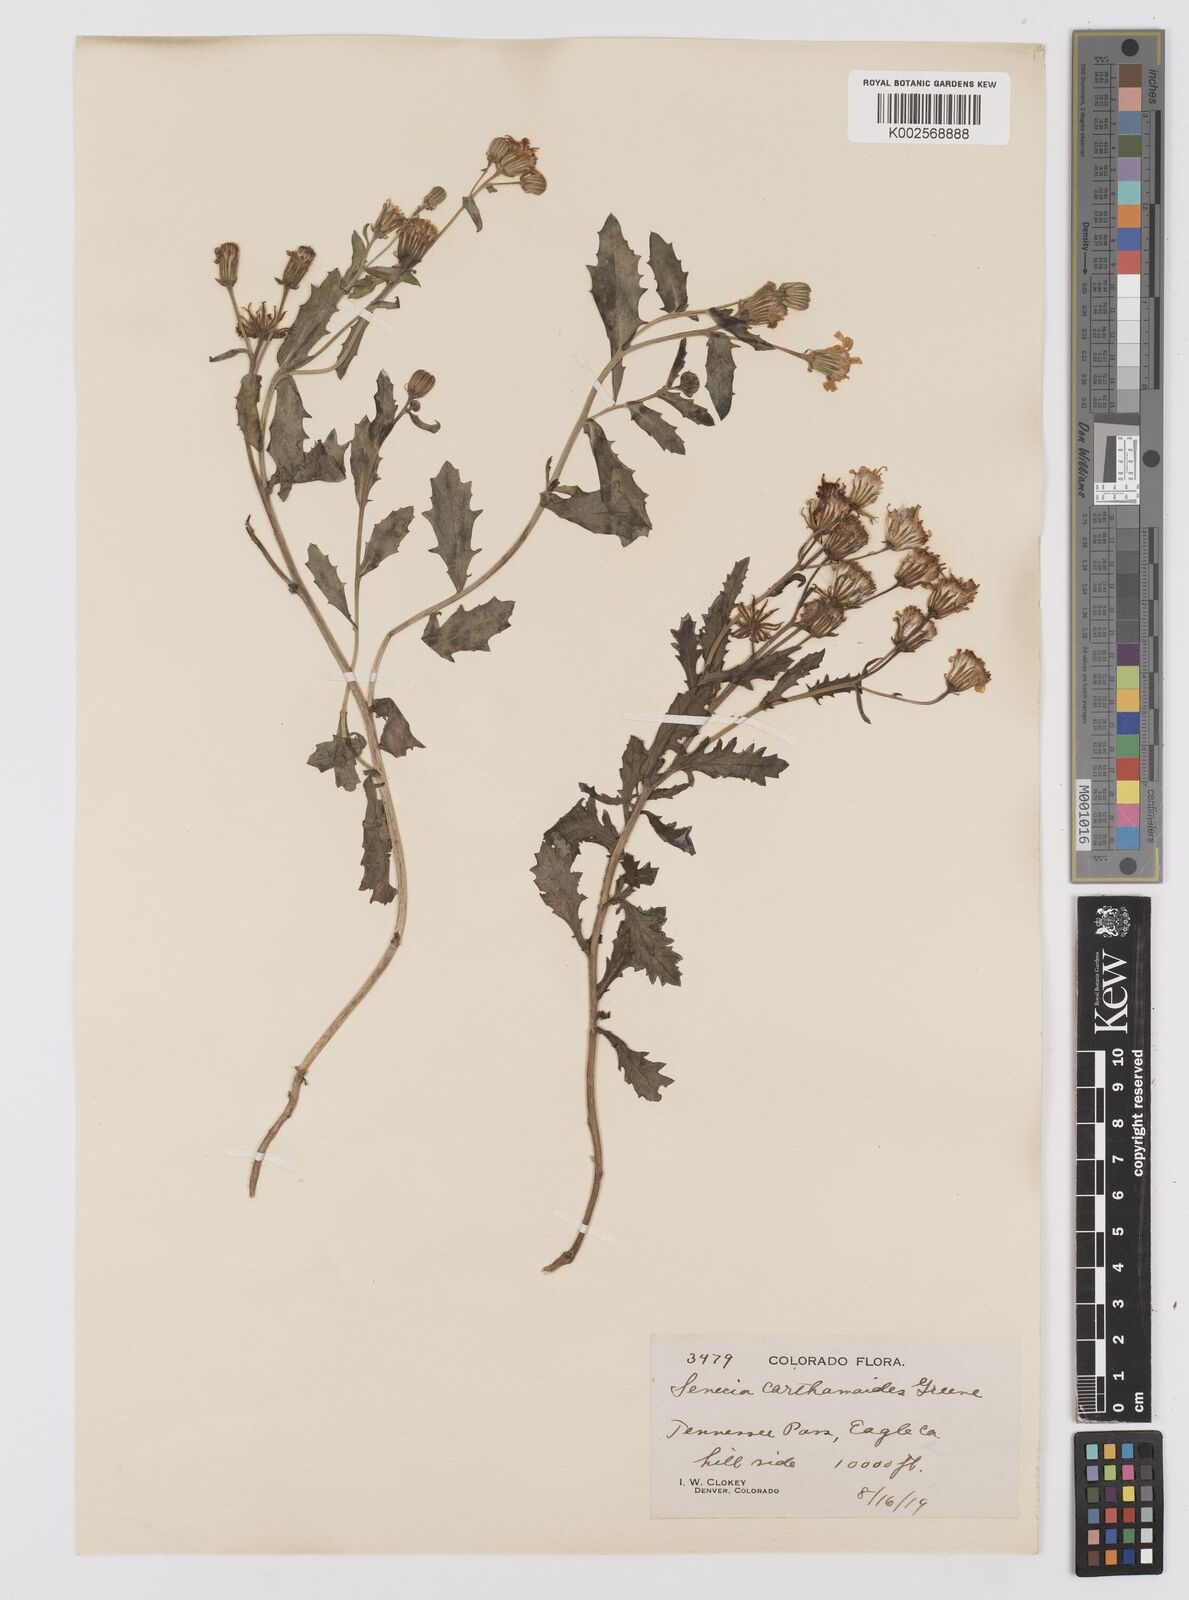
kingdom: Plantae
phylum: Tracheophyta
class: Magnoliopsida
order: Asterales
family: Asteraceae
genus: Senecio
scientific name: Senecio blitoides
